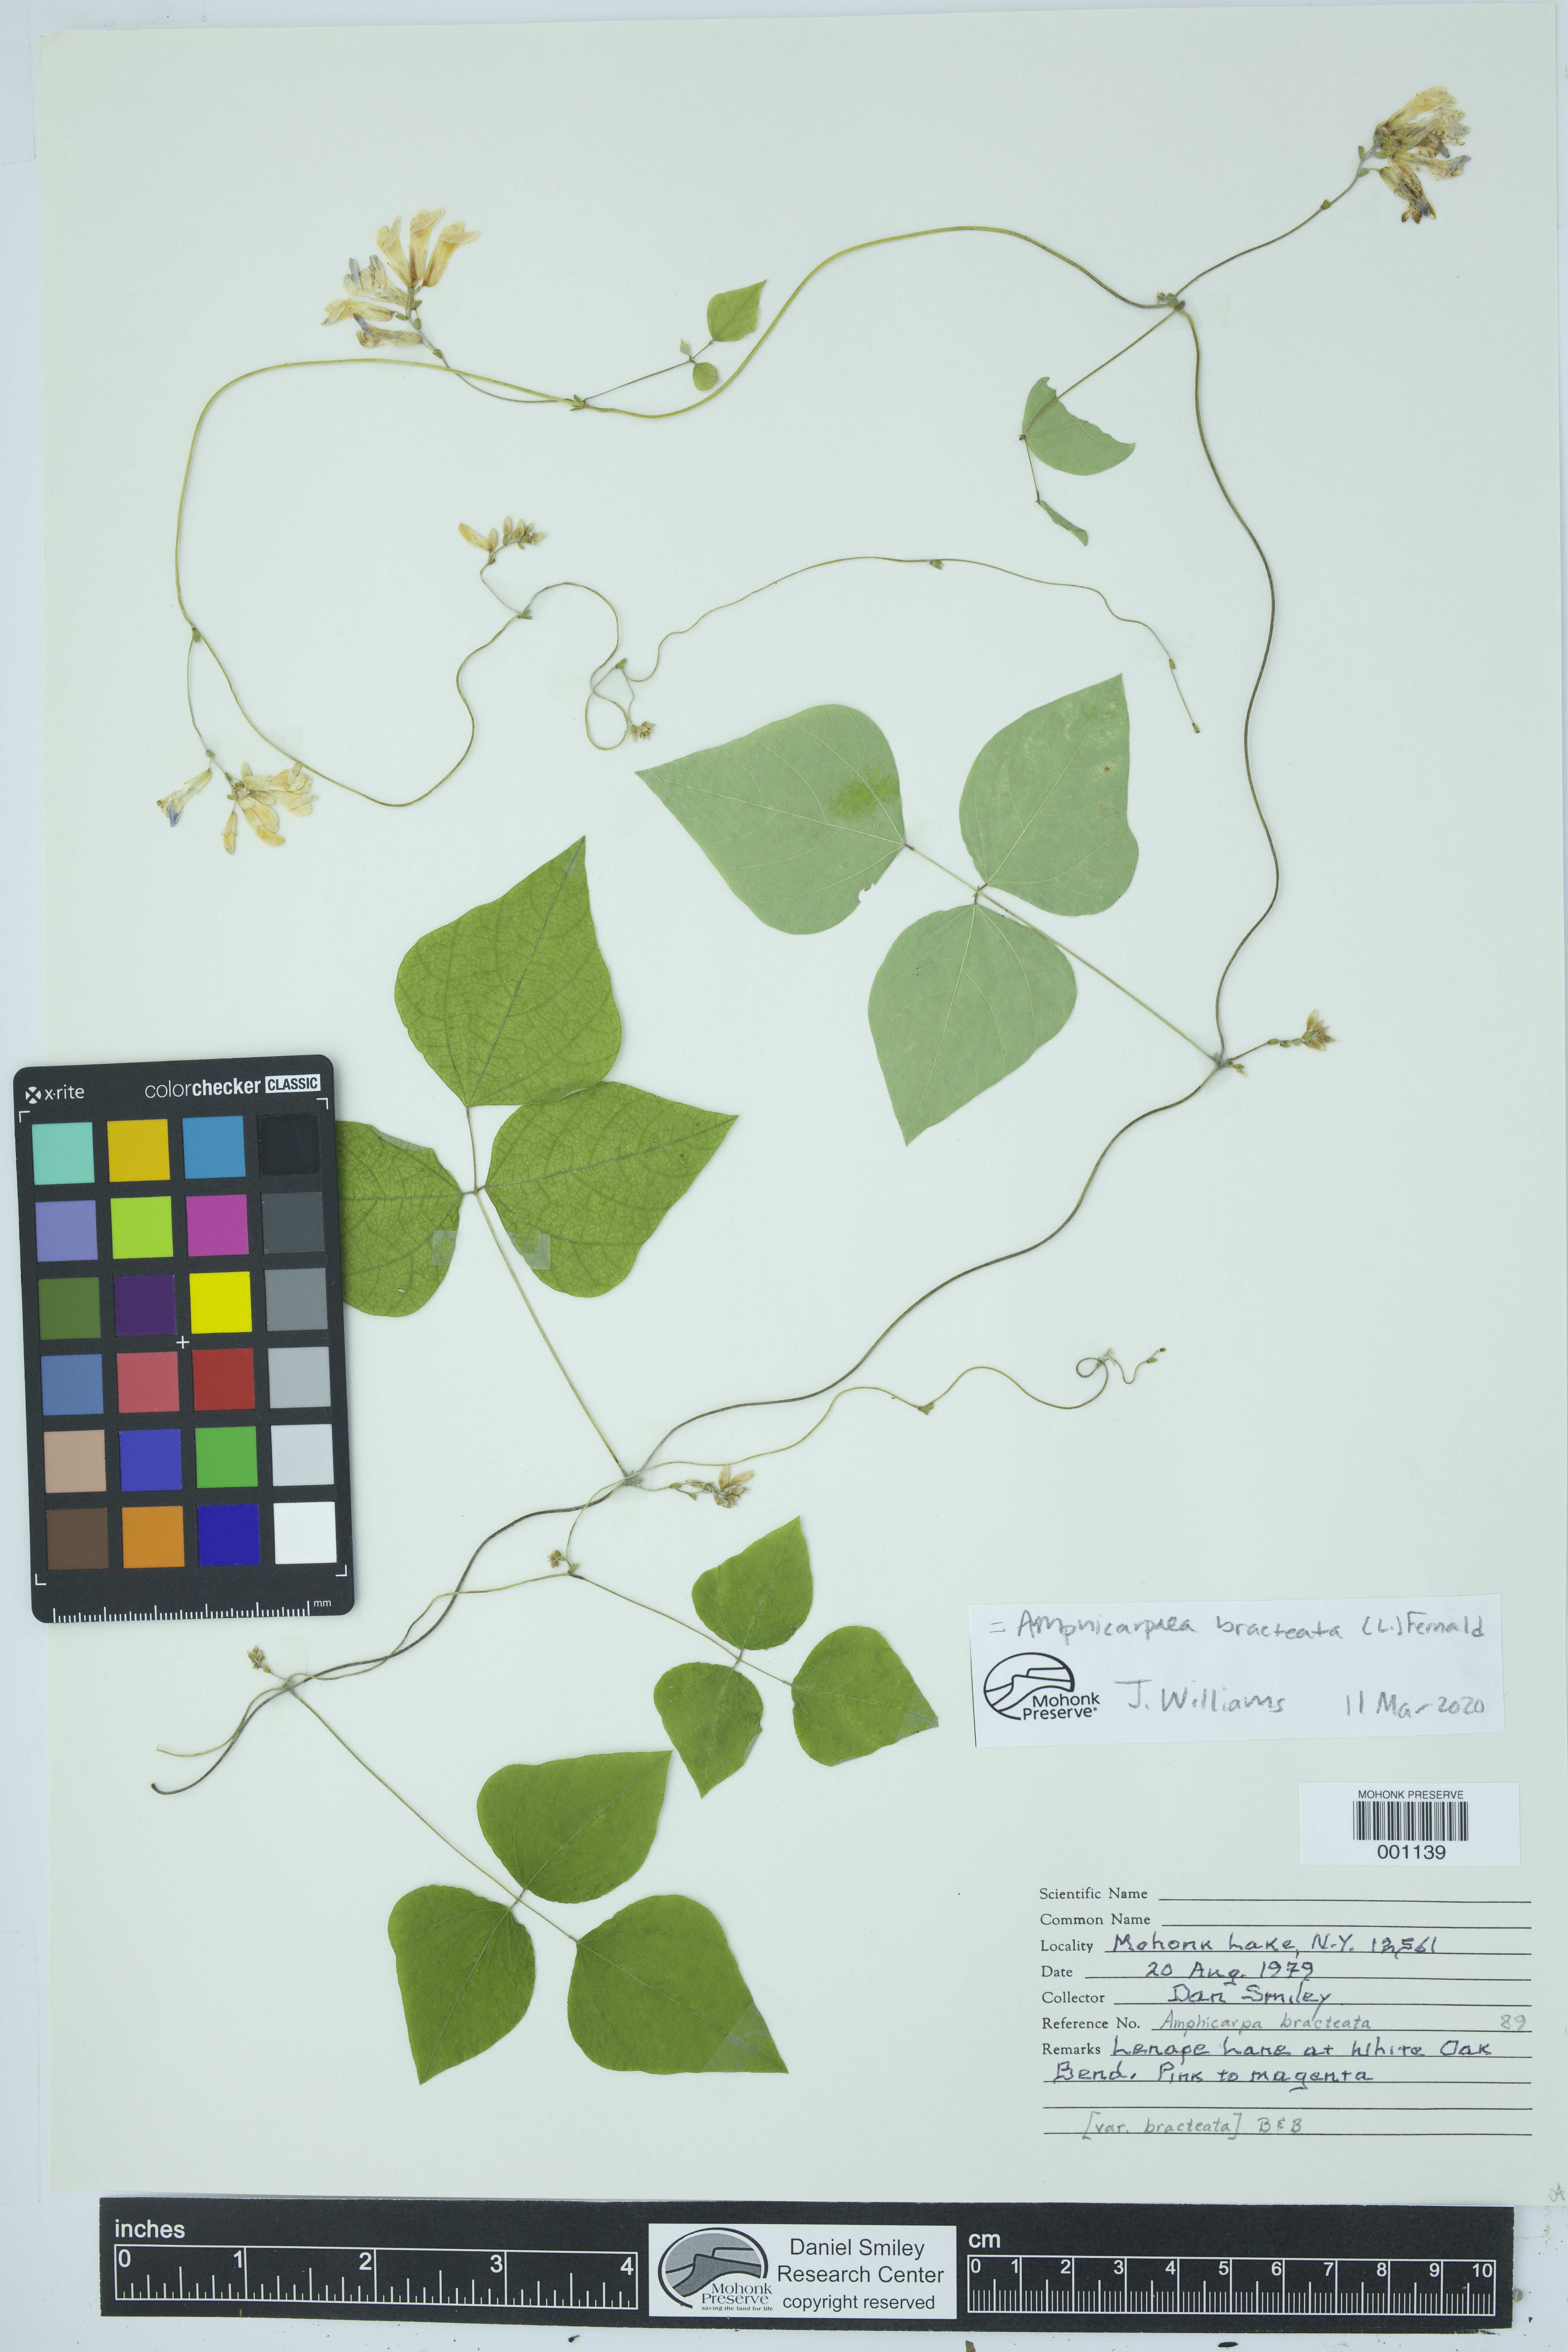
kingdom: Plantae
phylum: Tracheophyta
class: Magnoliopsida
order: Fabales
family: Fabaceae
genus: Amphicarpaea
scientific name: Amphicarpaea bracteata
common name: American hog peanut
